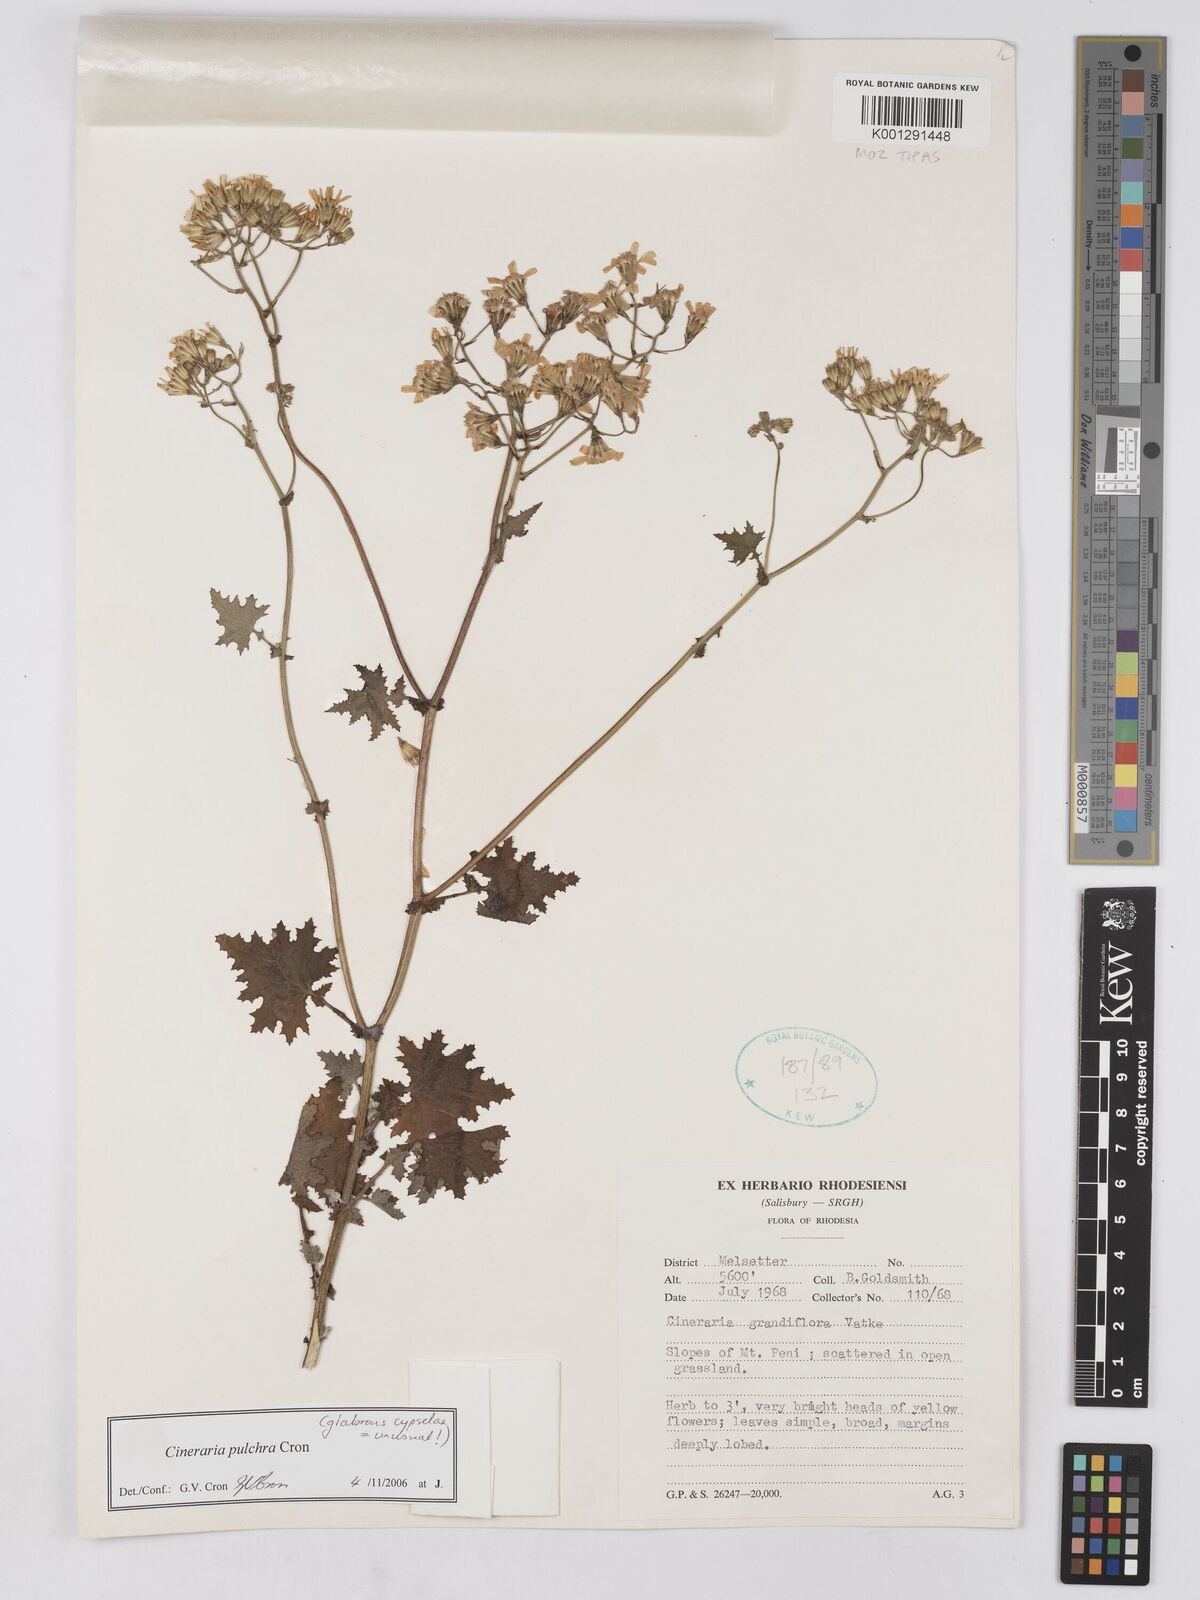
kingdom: Plantae
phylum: Tracheophyta
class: Magnoliopsida
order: Asterales
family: Asteraceae
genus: Cineraria
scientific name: Cineraria pulchra
